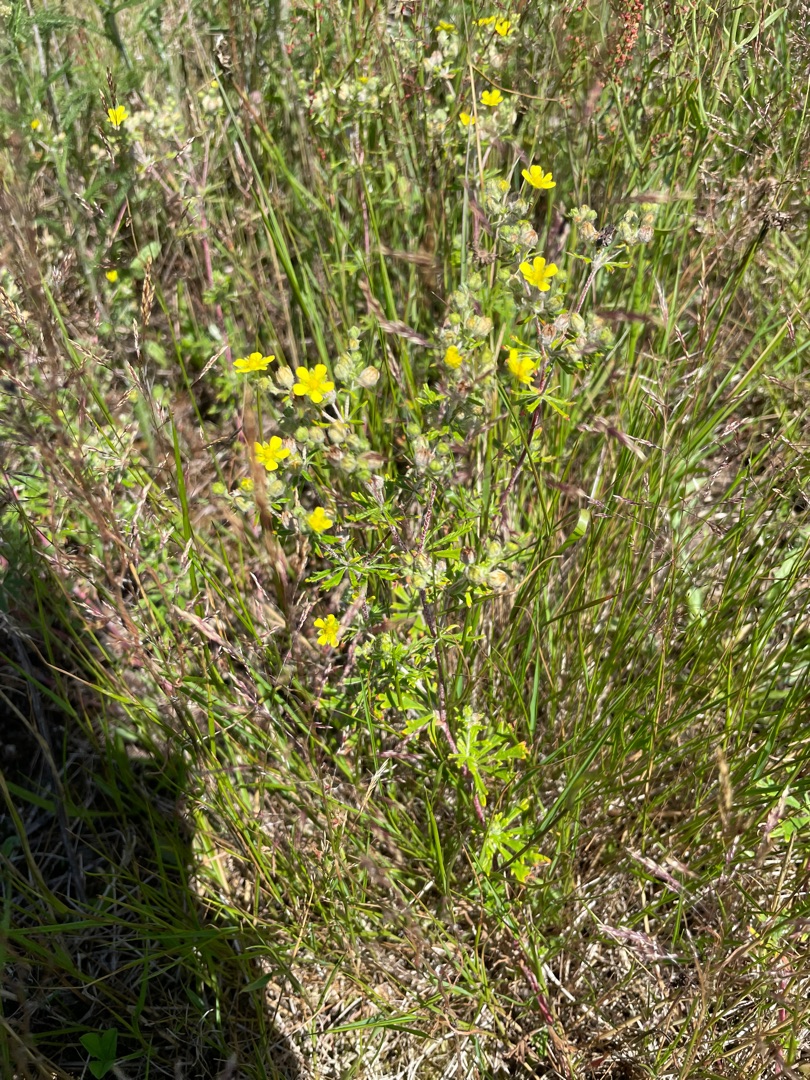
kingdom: Plantae
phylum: Tracheophyta
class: Magnoliopsida
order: Rosales
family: Rosaceae
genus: Potentilla
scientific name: Potentilla argentea
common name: Sølv-potentil
